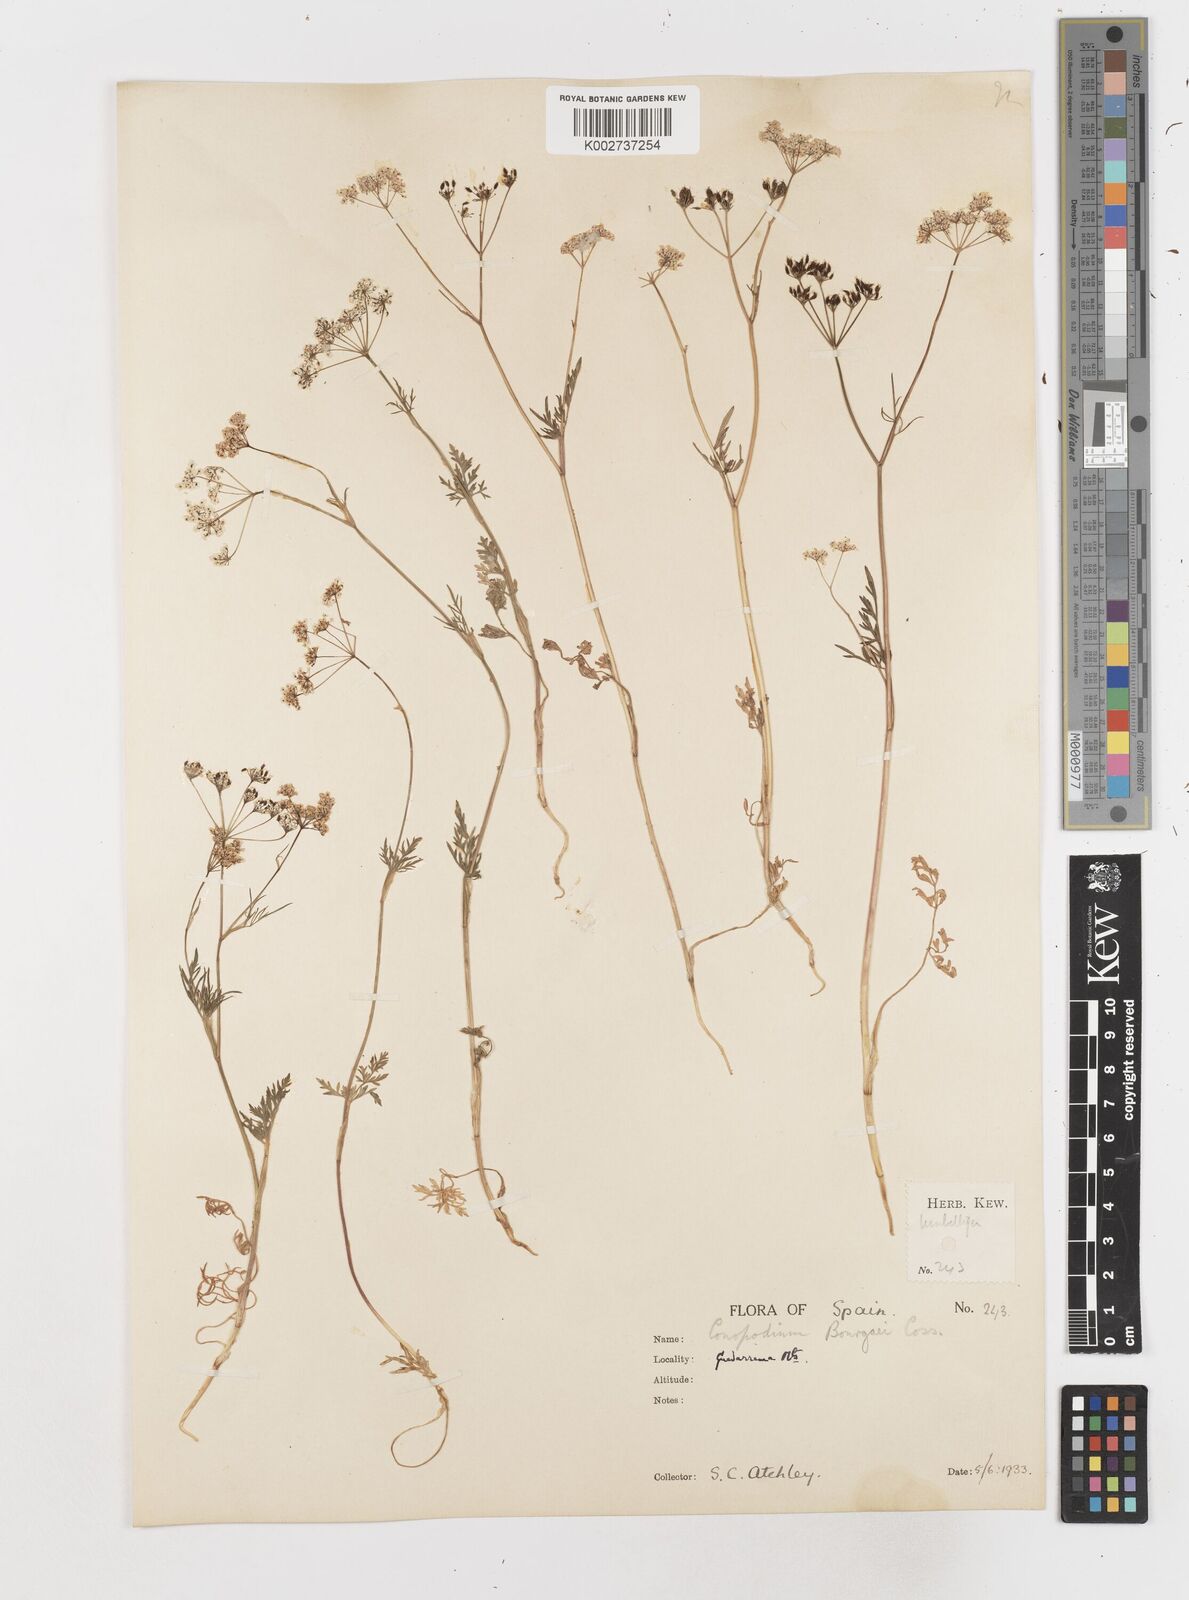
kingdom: Plantae
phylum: Tracheophyta
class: Magnoliopsida
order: Apiales
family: Apiaceae
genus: Conopodium
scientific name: Conopodium pyrenaeum
